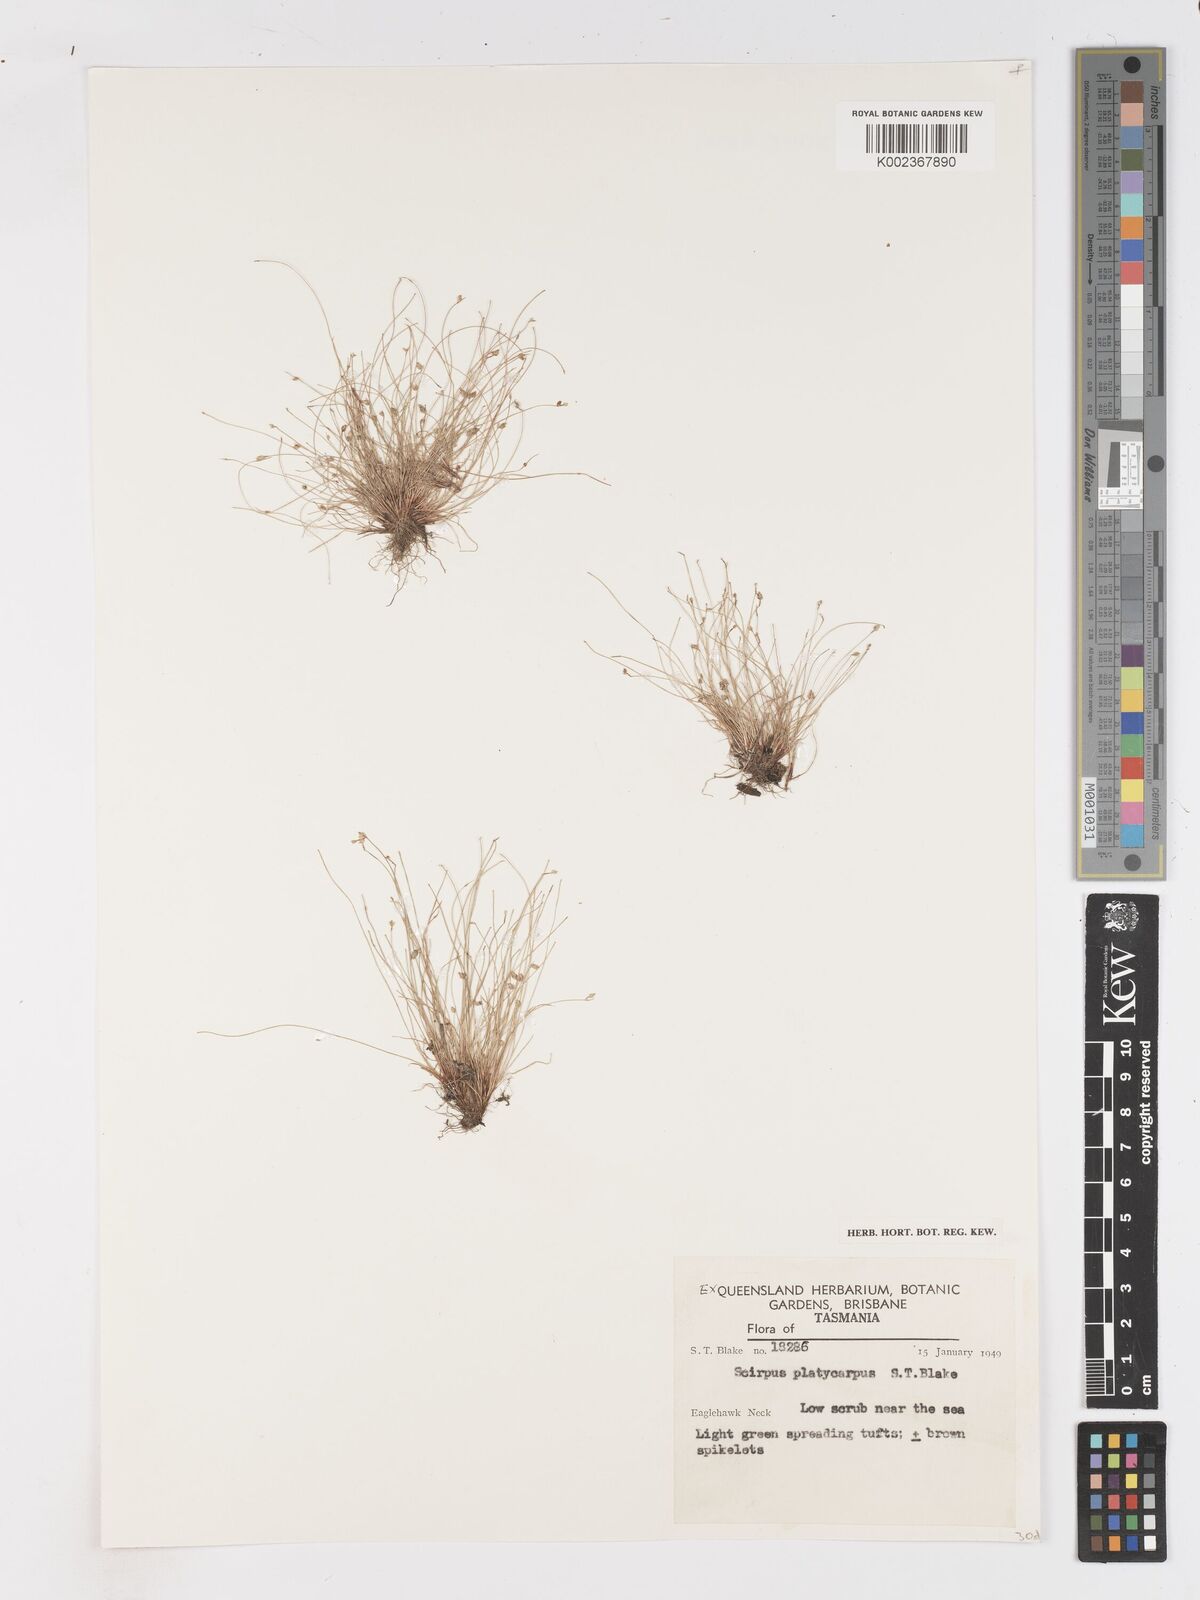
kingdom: Plantae
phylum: Tracheophyta
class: Liliopsida
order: Poales
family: Cyperaceae
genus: Isolepis
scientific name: Isolepis cernua
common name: Slender club-rush
